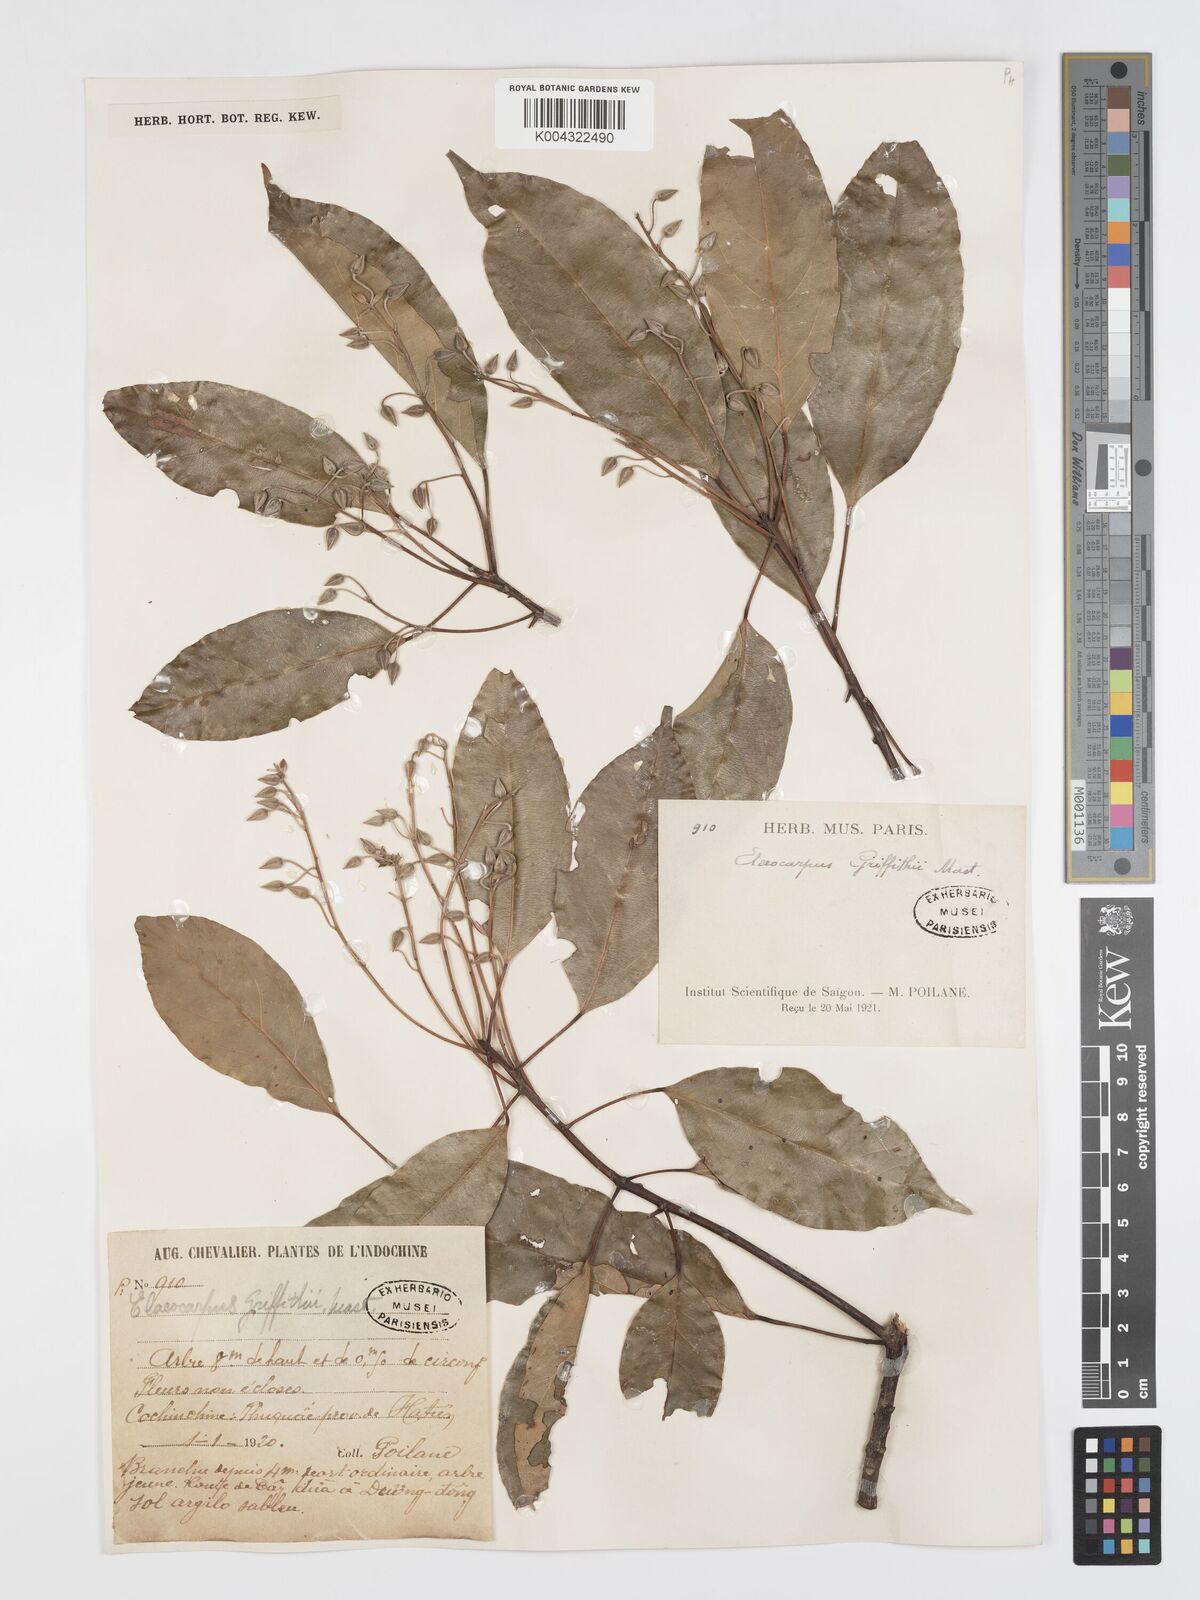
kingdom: Plantae
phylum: Tracheophyta
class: Magnoliopsida
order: Oxalidales
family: Elaeocarpaceae
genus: Elaeocarpus
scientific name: Elaeocarpus griffithii
